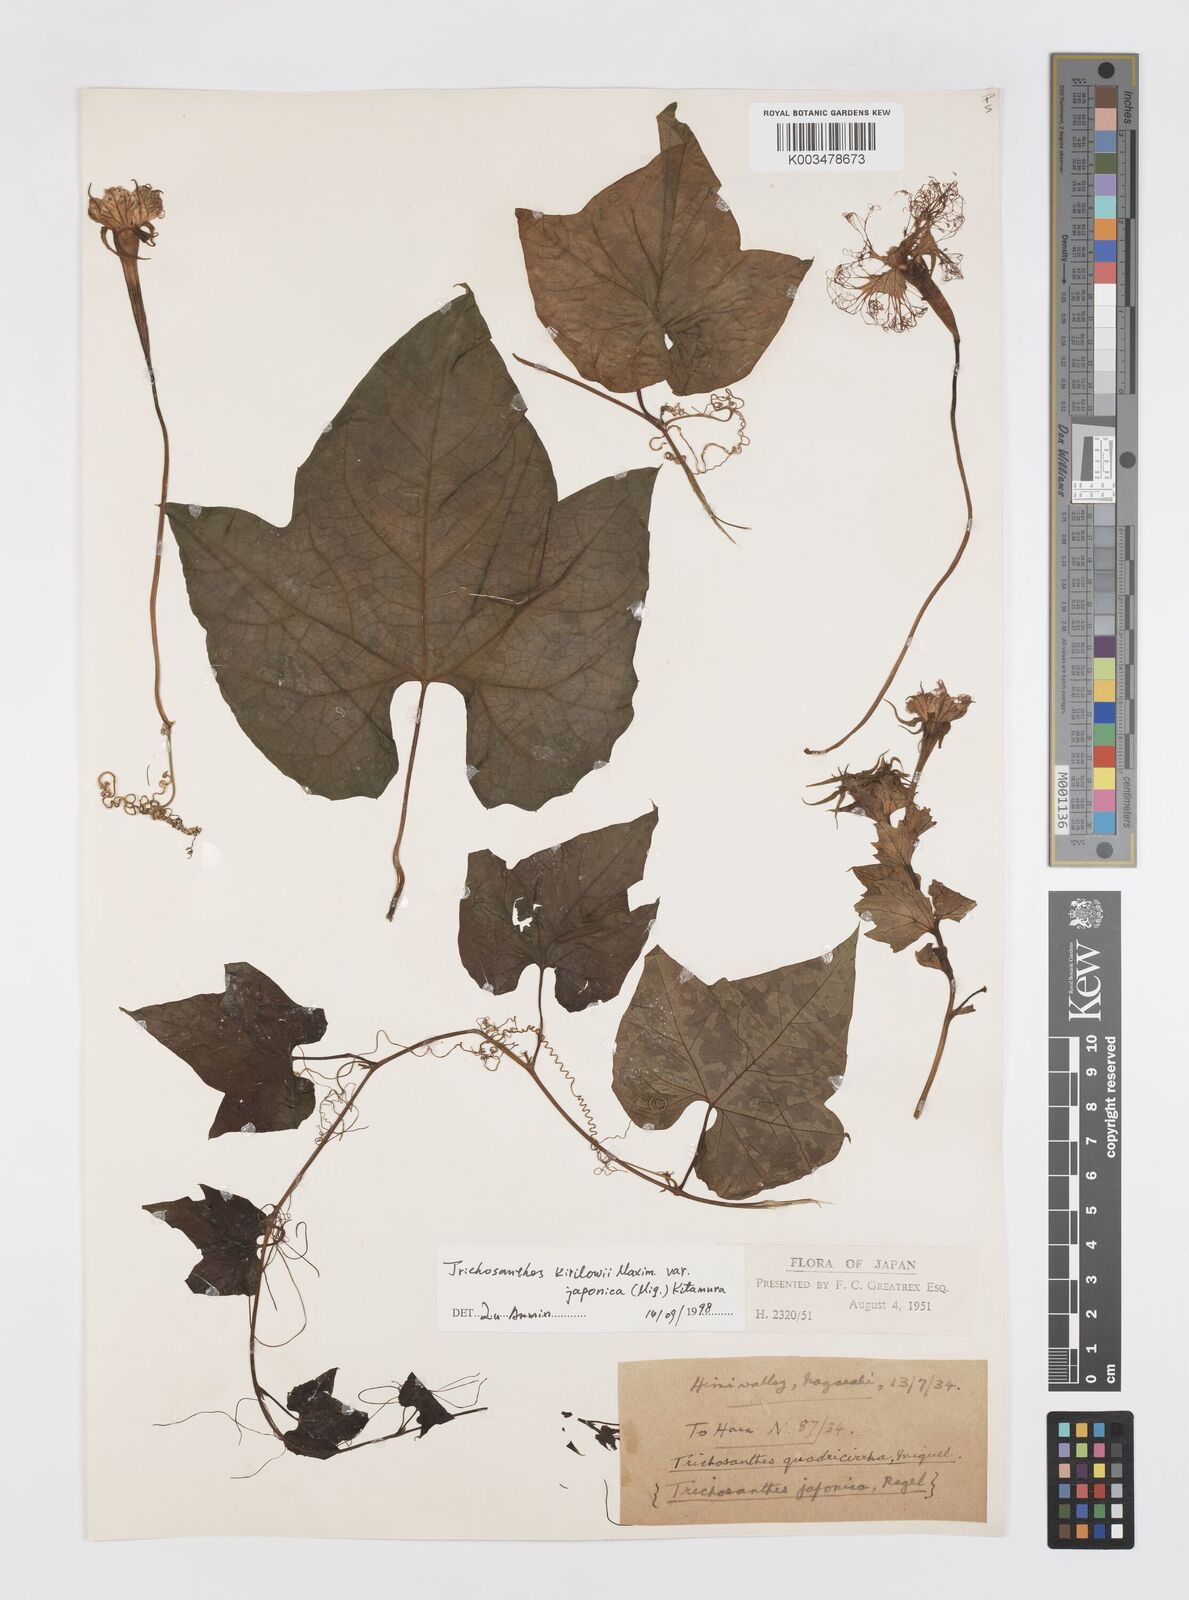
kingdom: Plantae
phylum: Tracheophyta
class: Magnoliopsida
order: Cucurbitales
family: Cucurbitaceae
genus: Trichosanthes
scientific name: Trichosanthes kirilowii
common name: Chinese-cucumber
